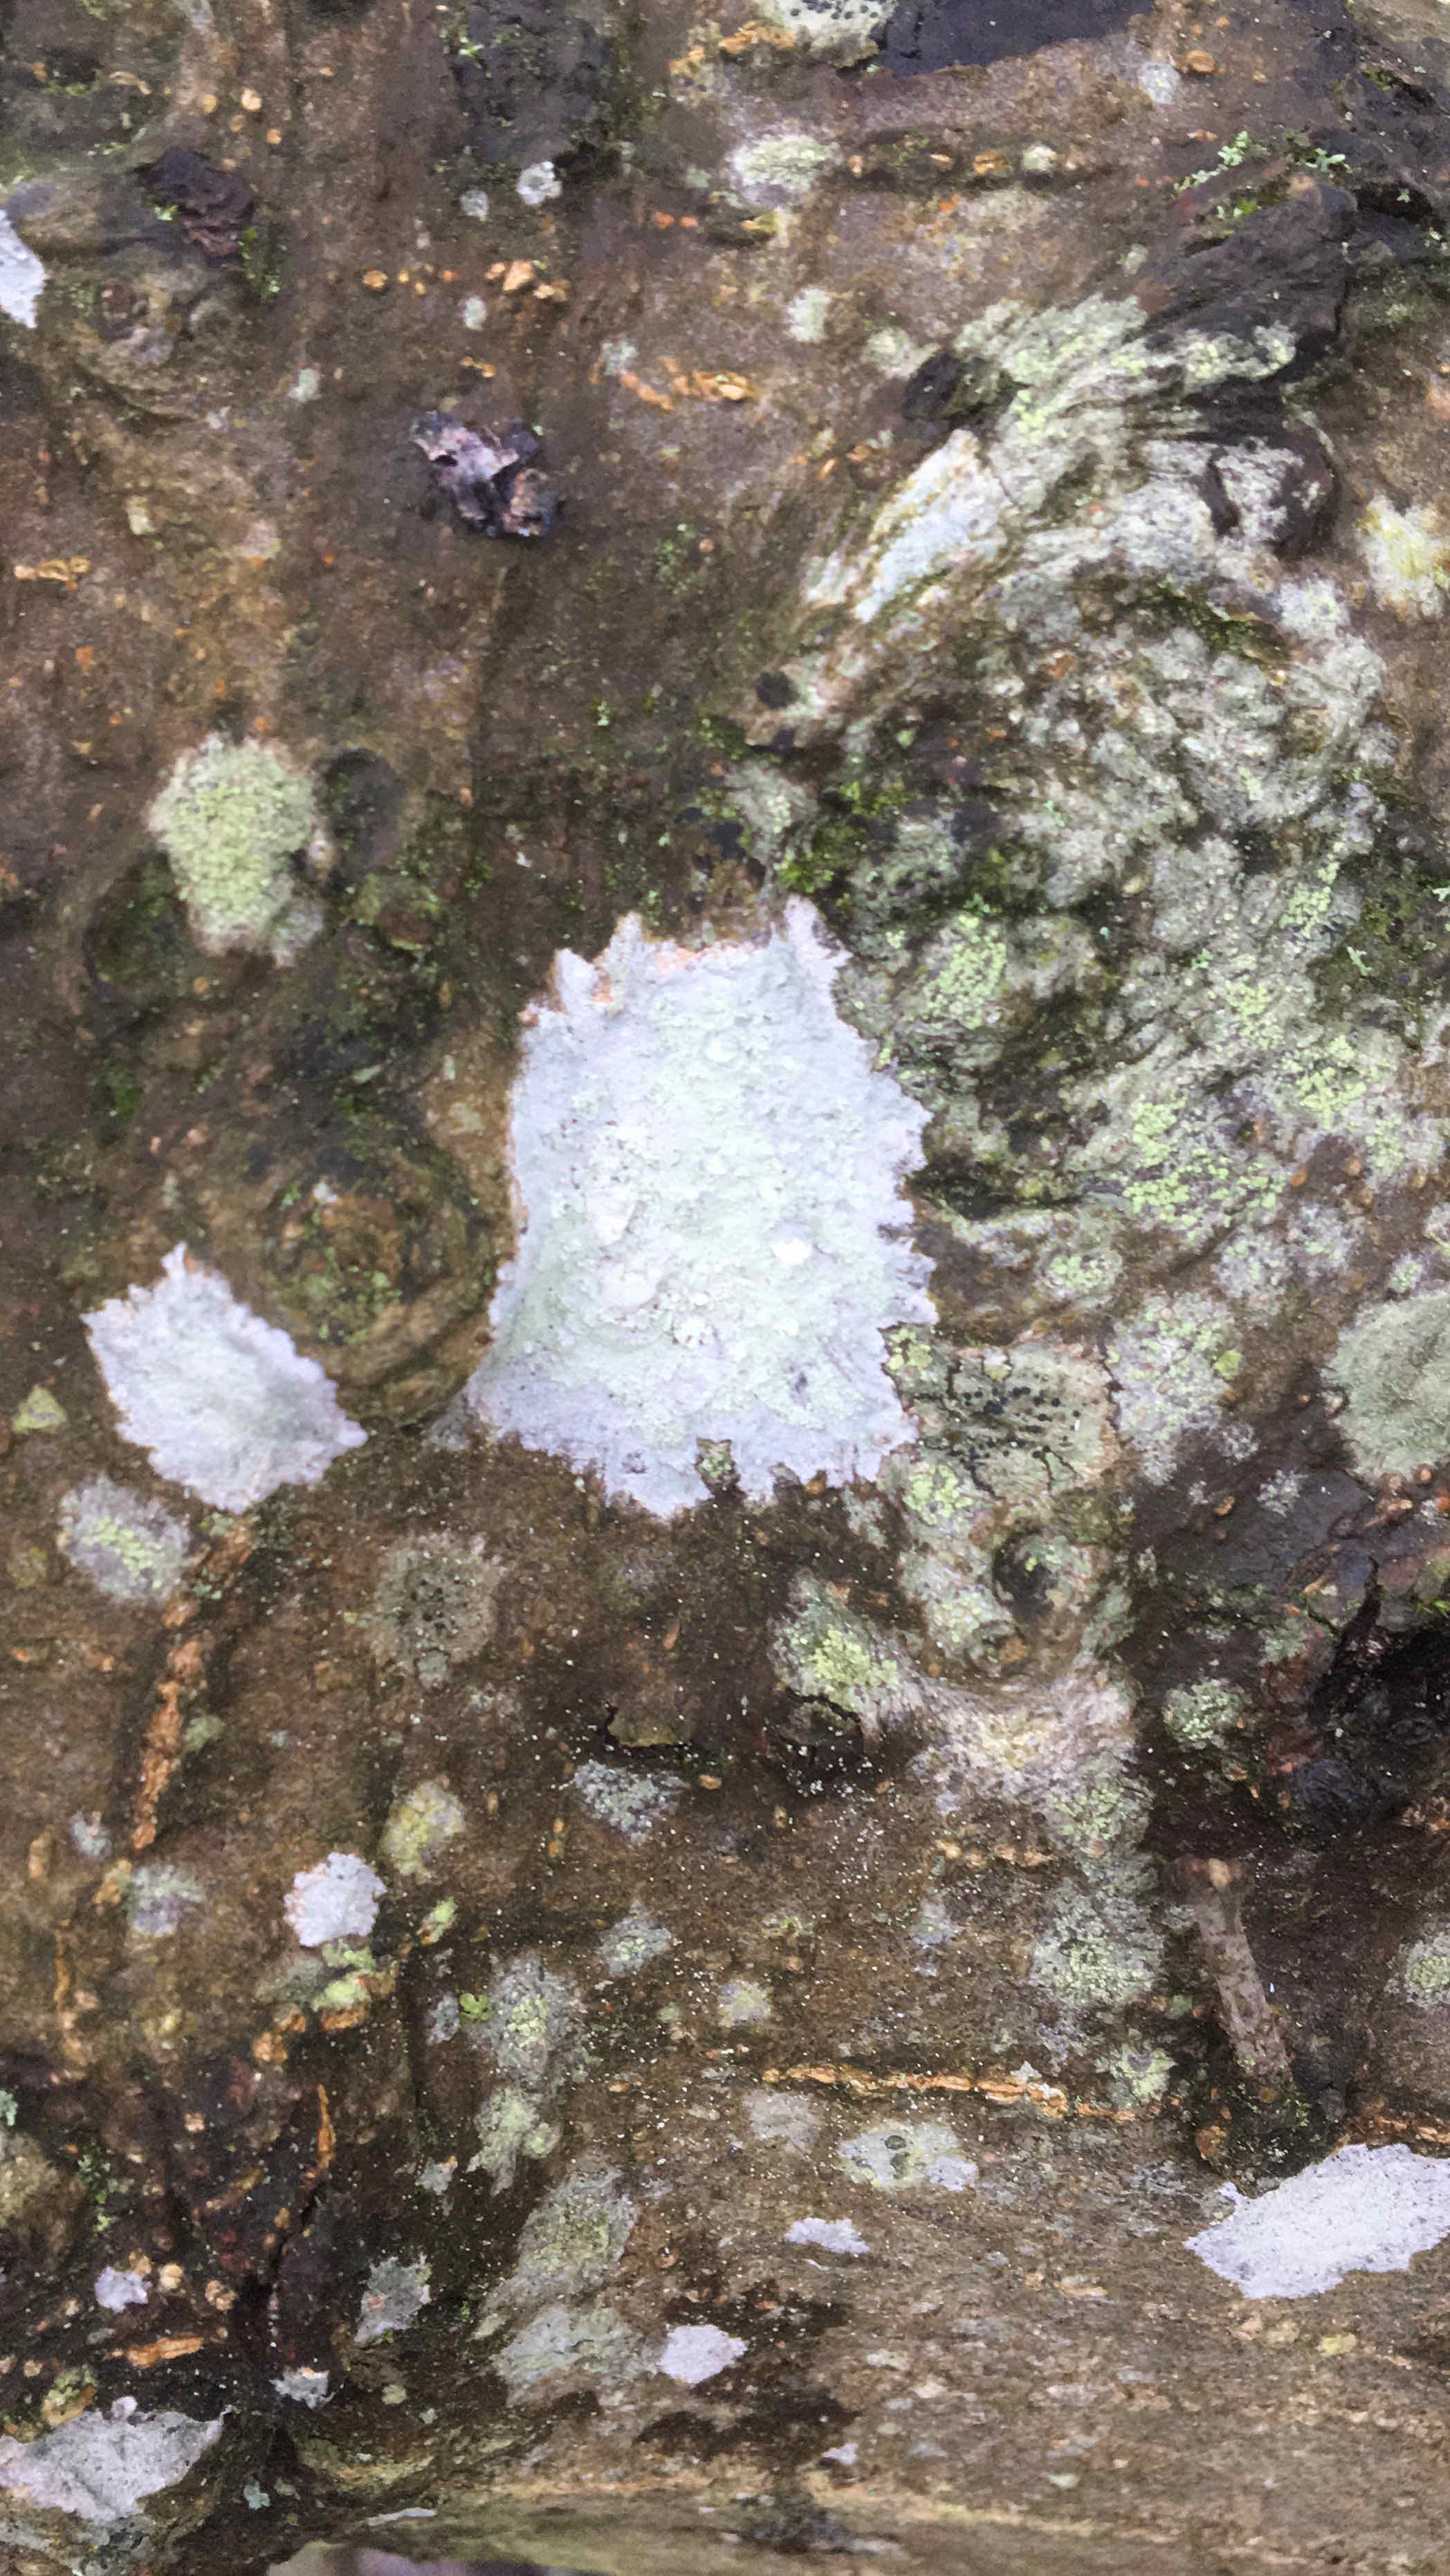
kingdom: Fungi
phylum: Ascomycota
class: Lecanoromycetes
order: Ostropales
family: Phlyctidaceae
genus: Phlyctis
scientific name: Phlyctis argena
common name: almindelig sølvlav
